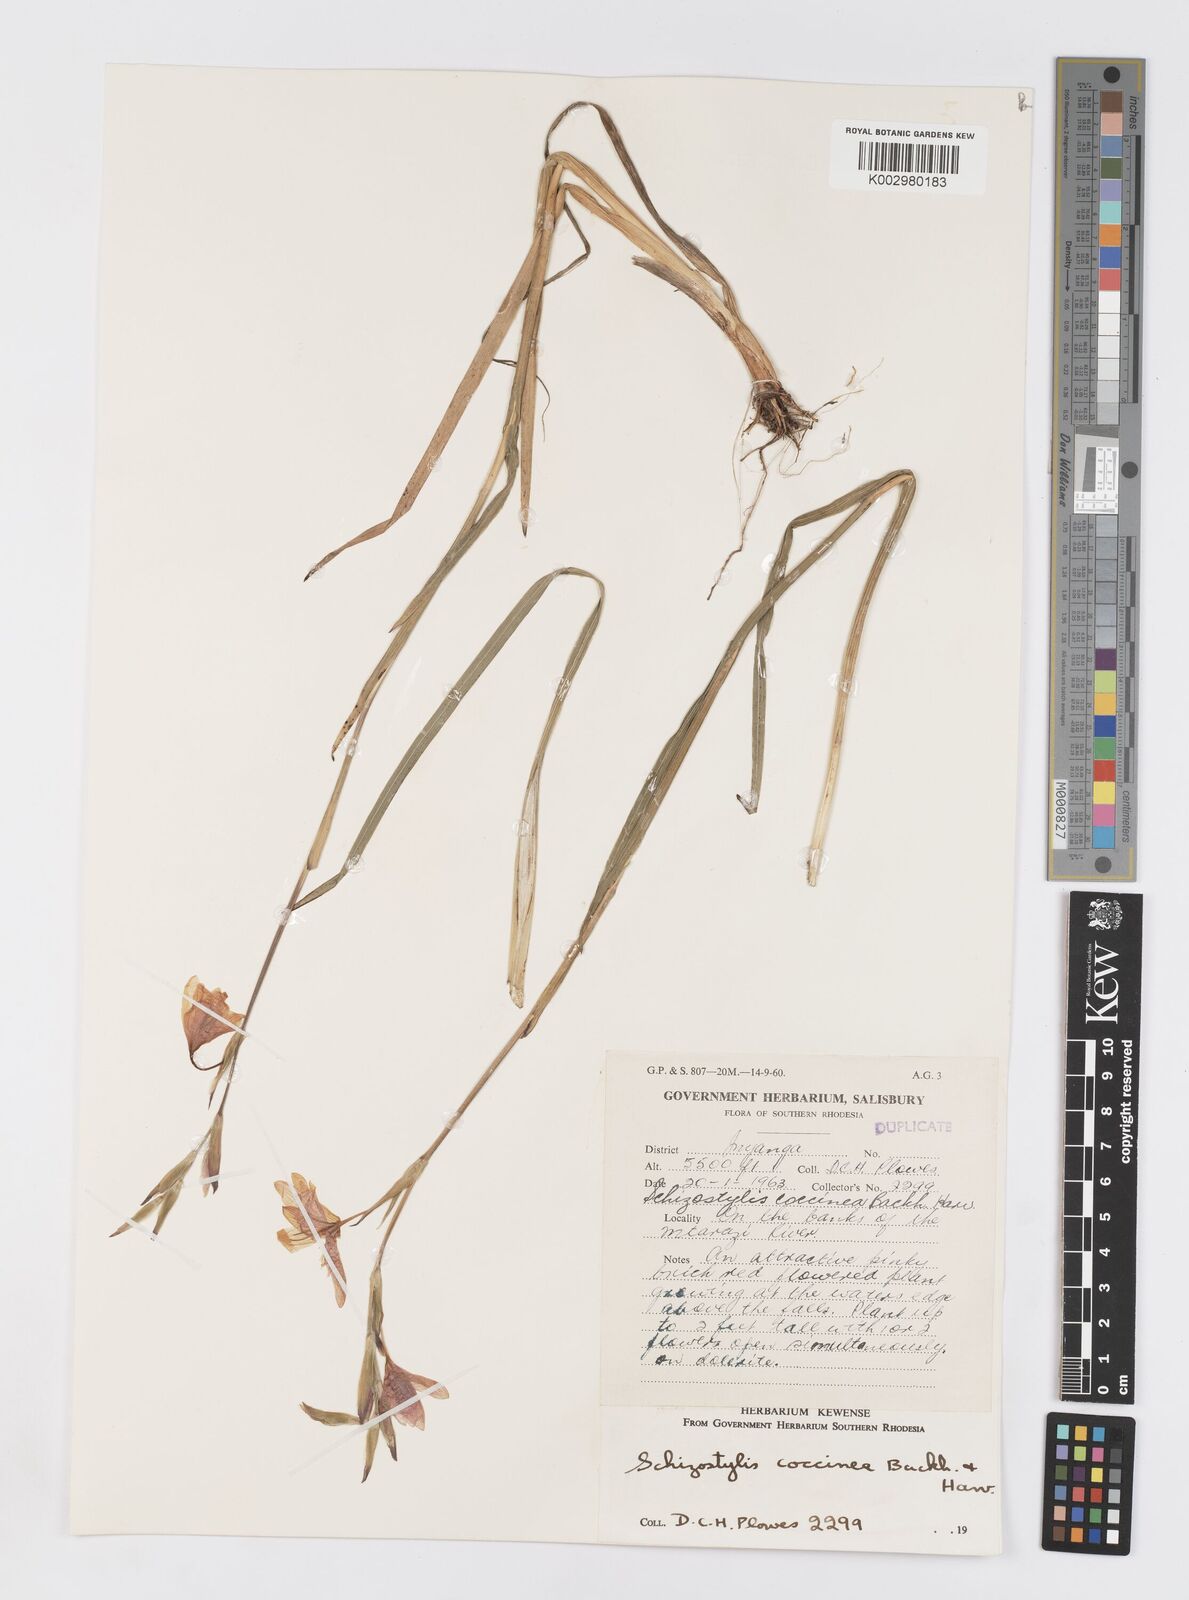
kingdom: Plantae
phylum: Tracheophyta
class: Liliopsida
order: Asparagales
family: Iridaceae
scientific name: Iridaceae
